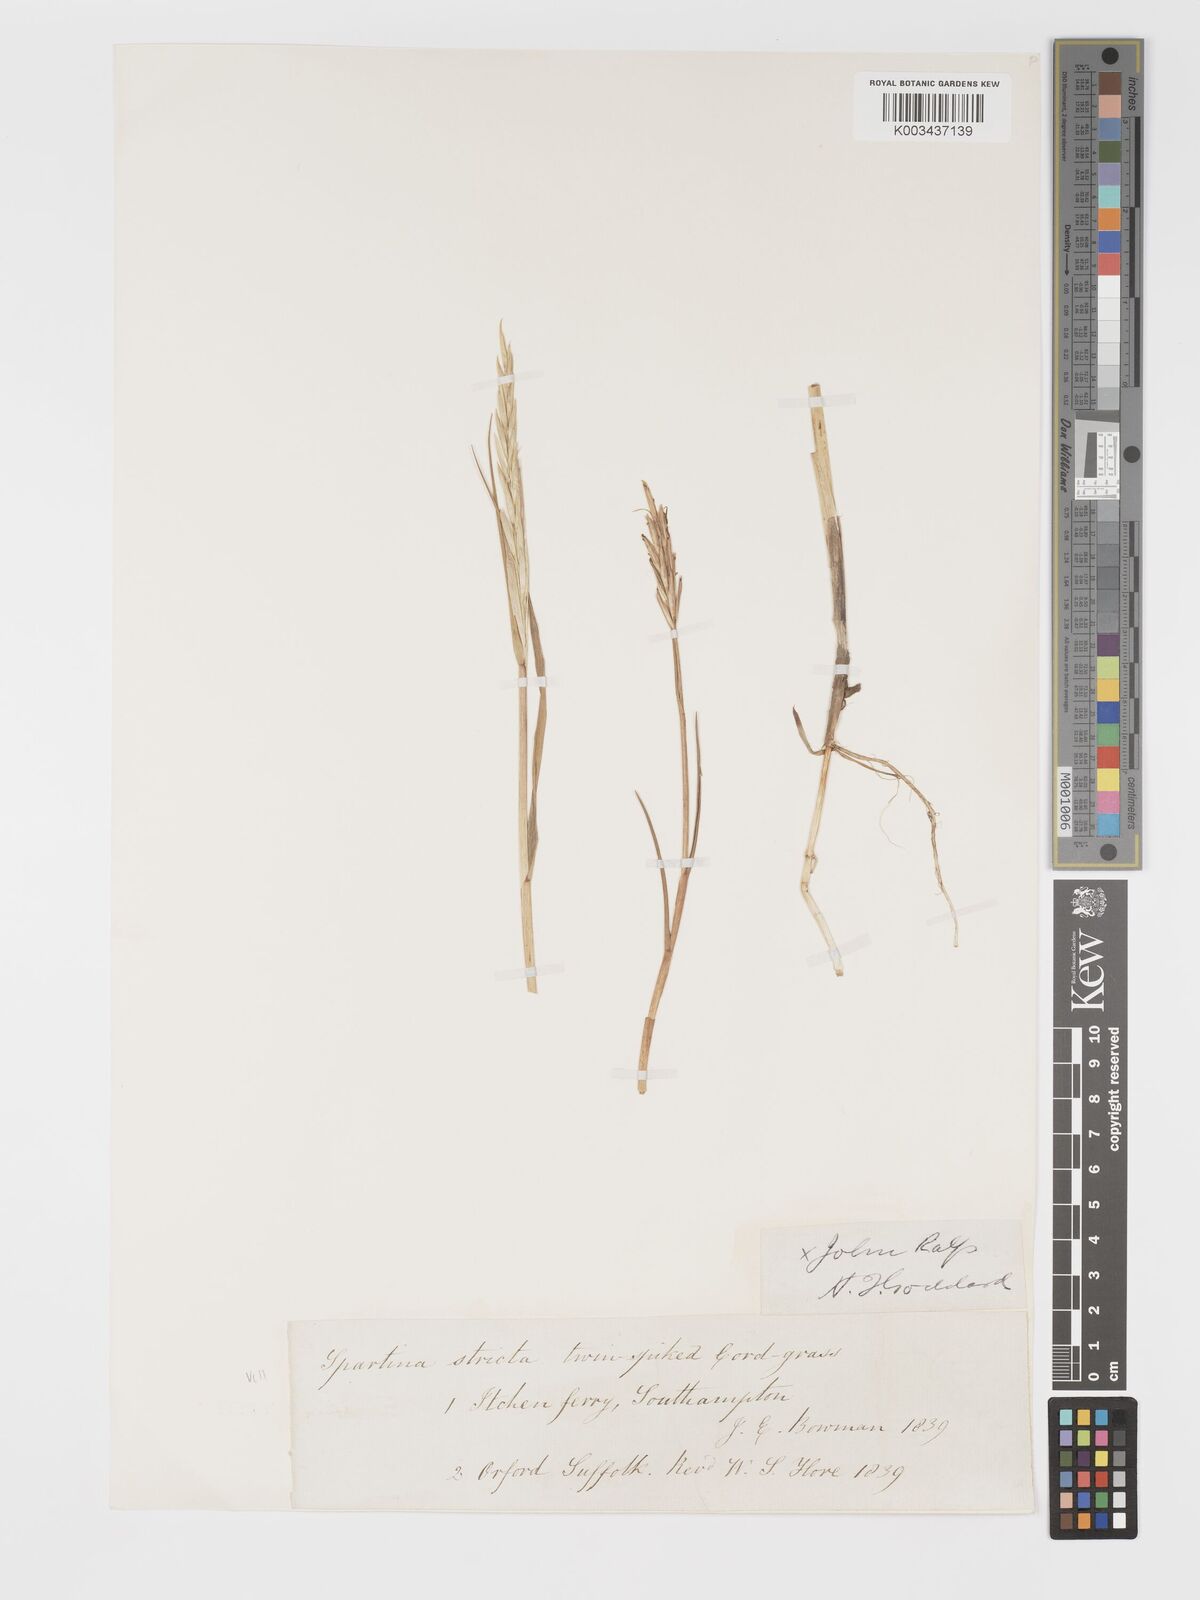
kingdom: Plantae
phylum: Tracheophyta
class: Liliopsida
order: Poales
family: Poaceae
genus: Sporobolus
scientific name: Sporobolus maritimus
